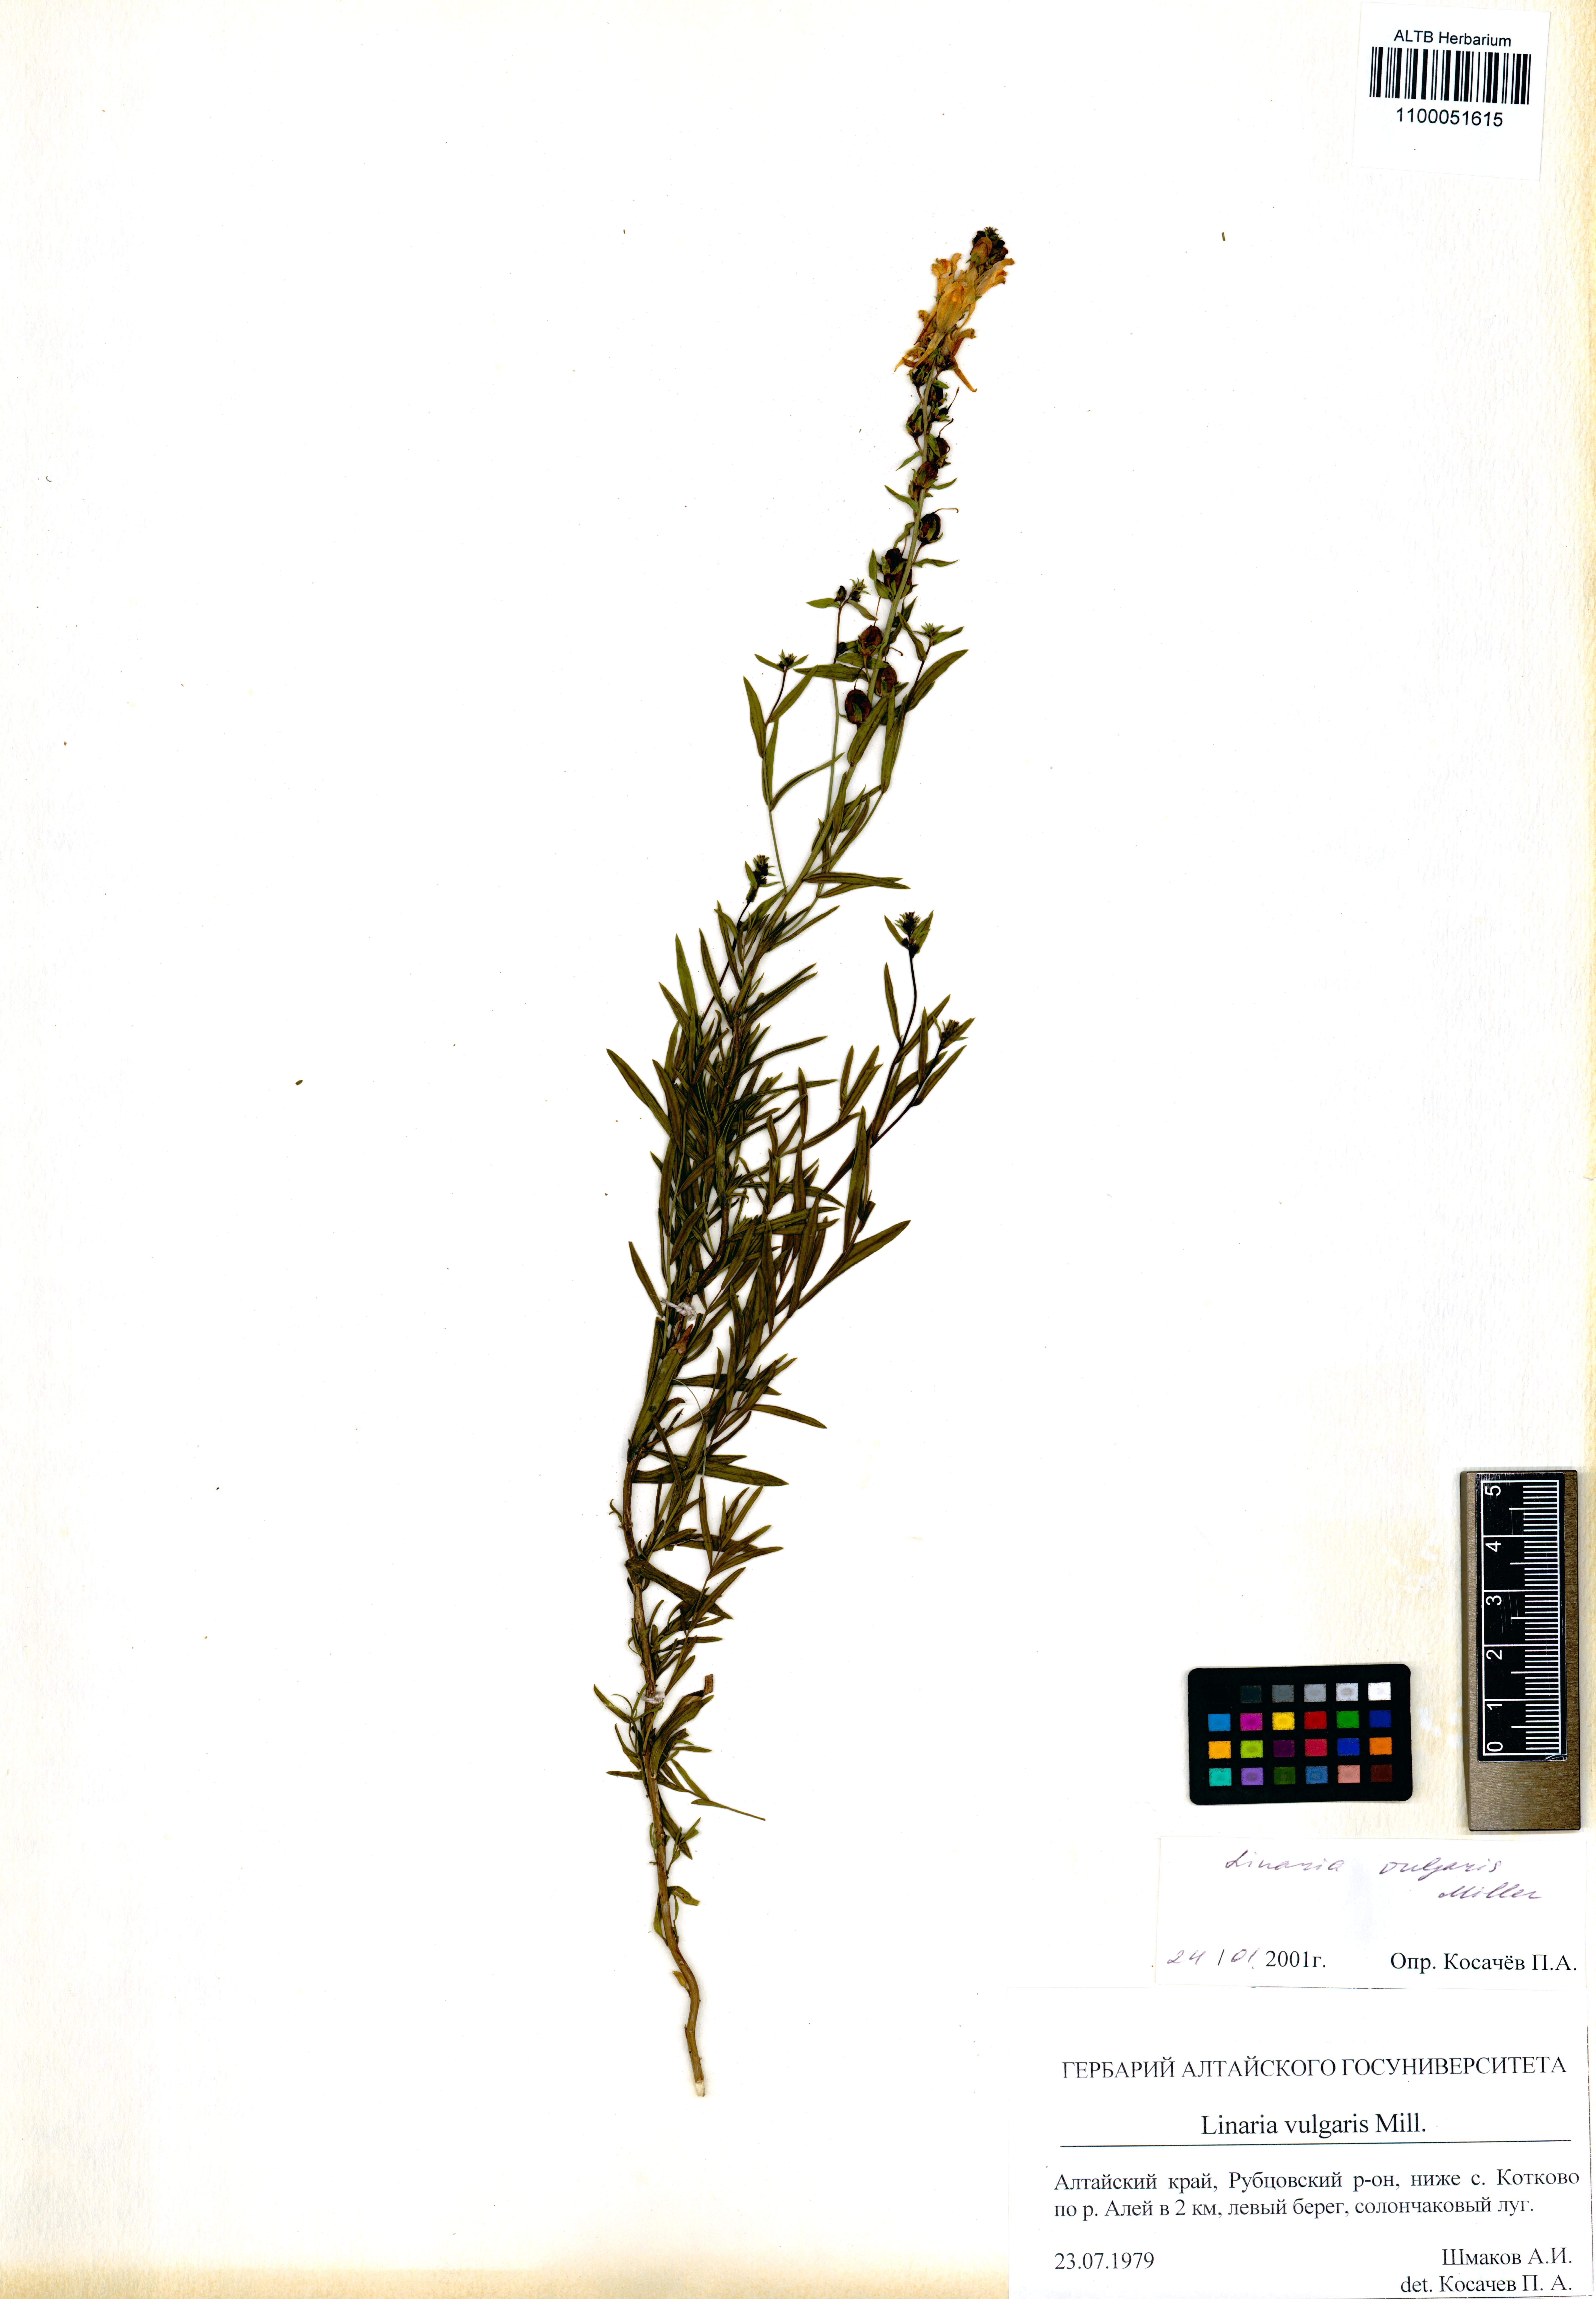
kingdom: Plantae
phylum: Tracheophyta
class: Magnoliopsida
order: Lamiales
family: Plantaginaceae
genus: Linaria
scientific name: Linaria vulgaris
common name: Butter and eggs
